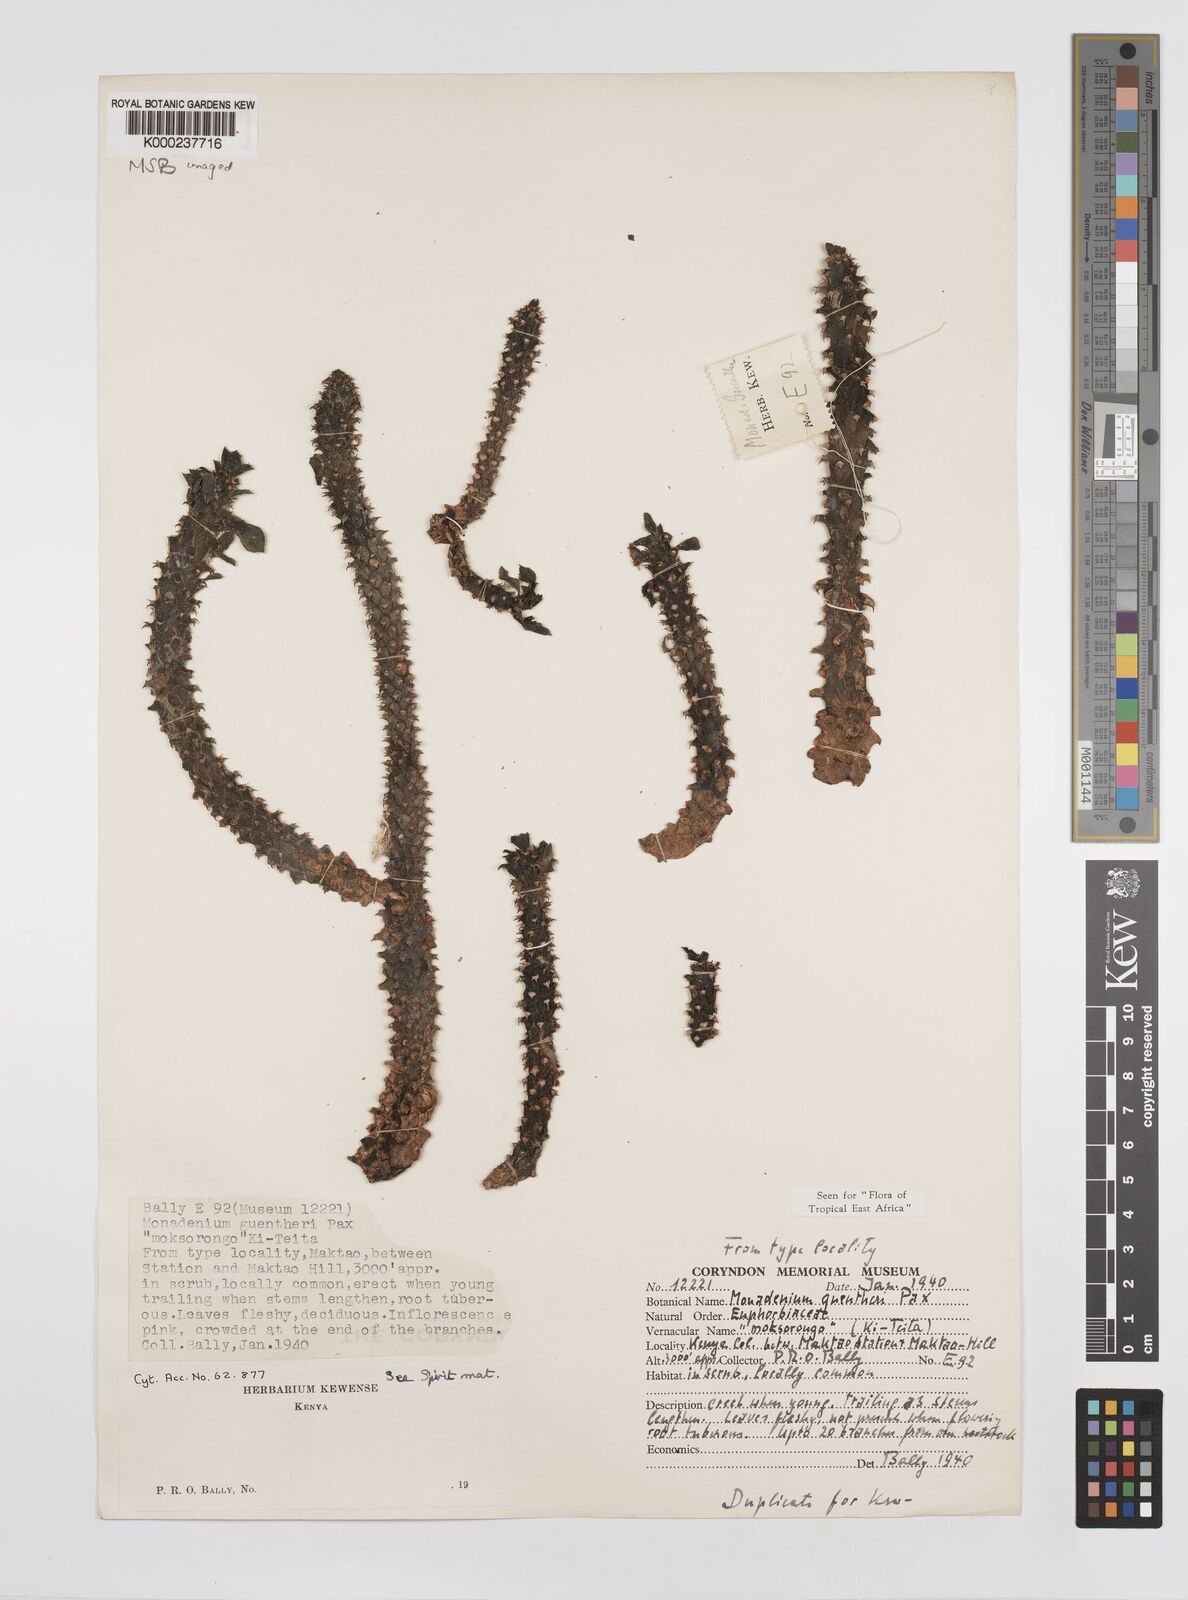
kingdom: Plantae
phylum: Tracheophyta
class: Magnoliopsida
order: Malpighiales
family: Euphorbiaceae
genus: Euphorbia
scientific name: Euphorbia guentheri
